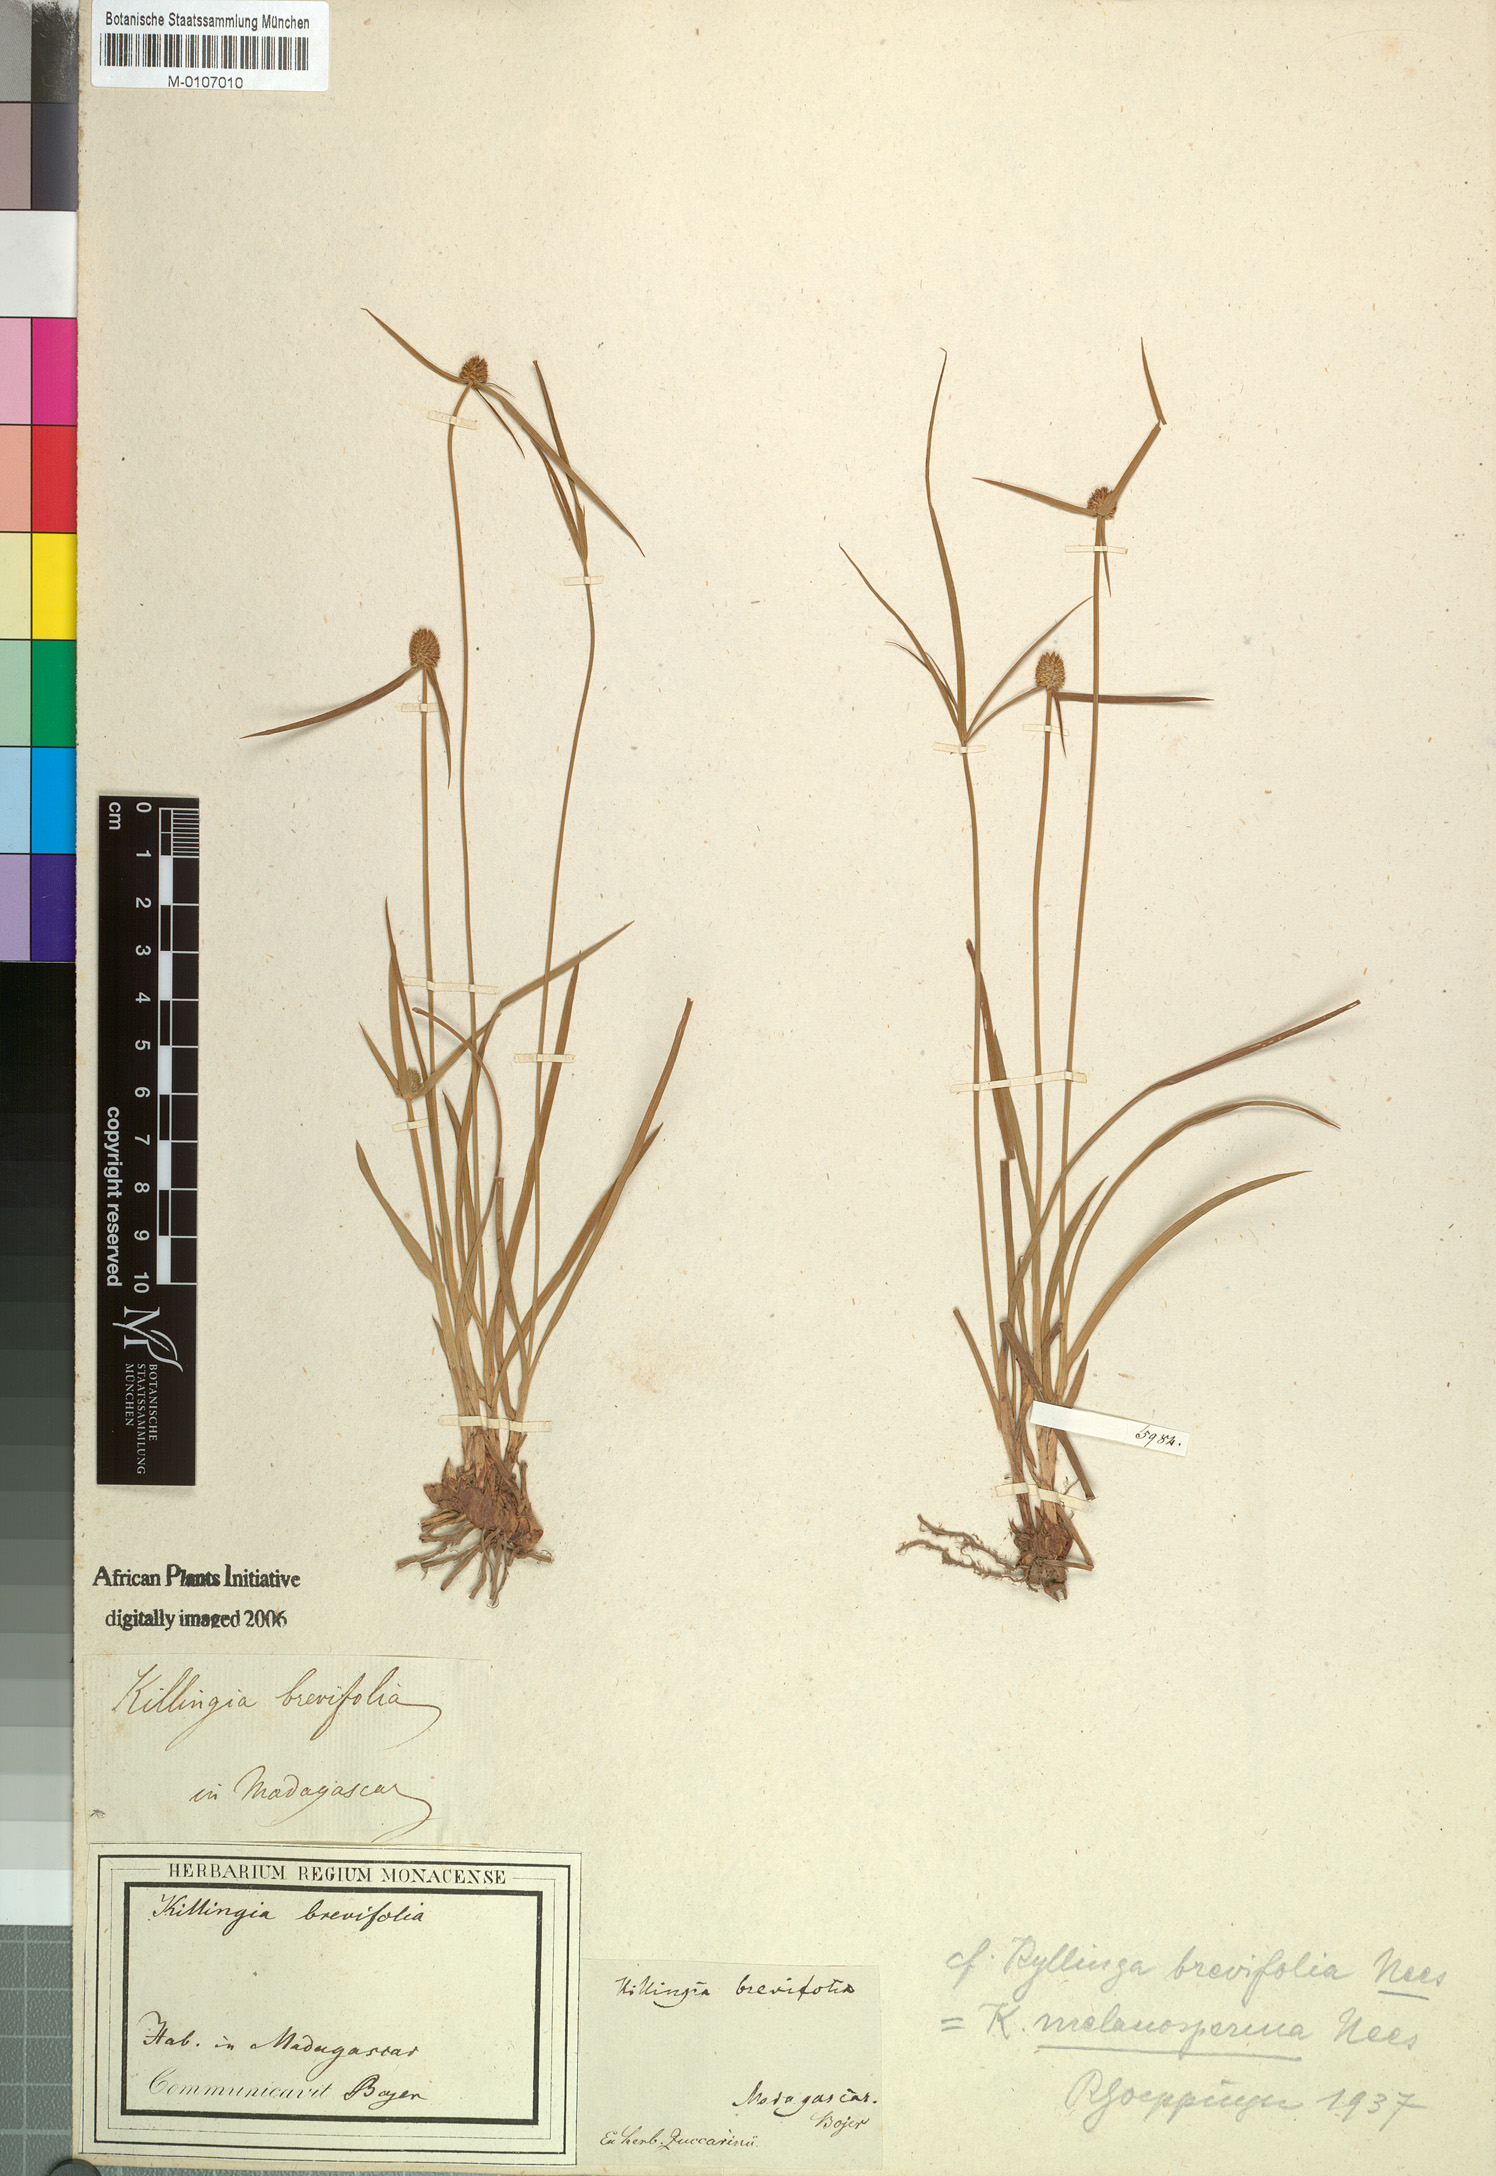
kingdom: Plantae
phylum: Tracheophyta
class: Liliopsida
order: Poales
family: Cyperaceae
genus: Cyperus
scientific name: Cyperus melanospermus
